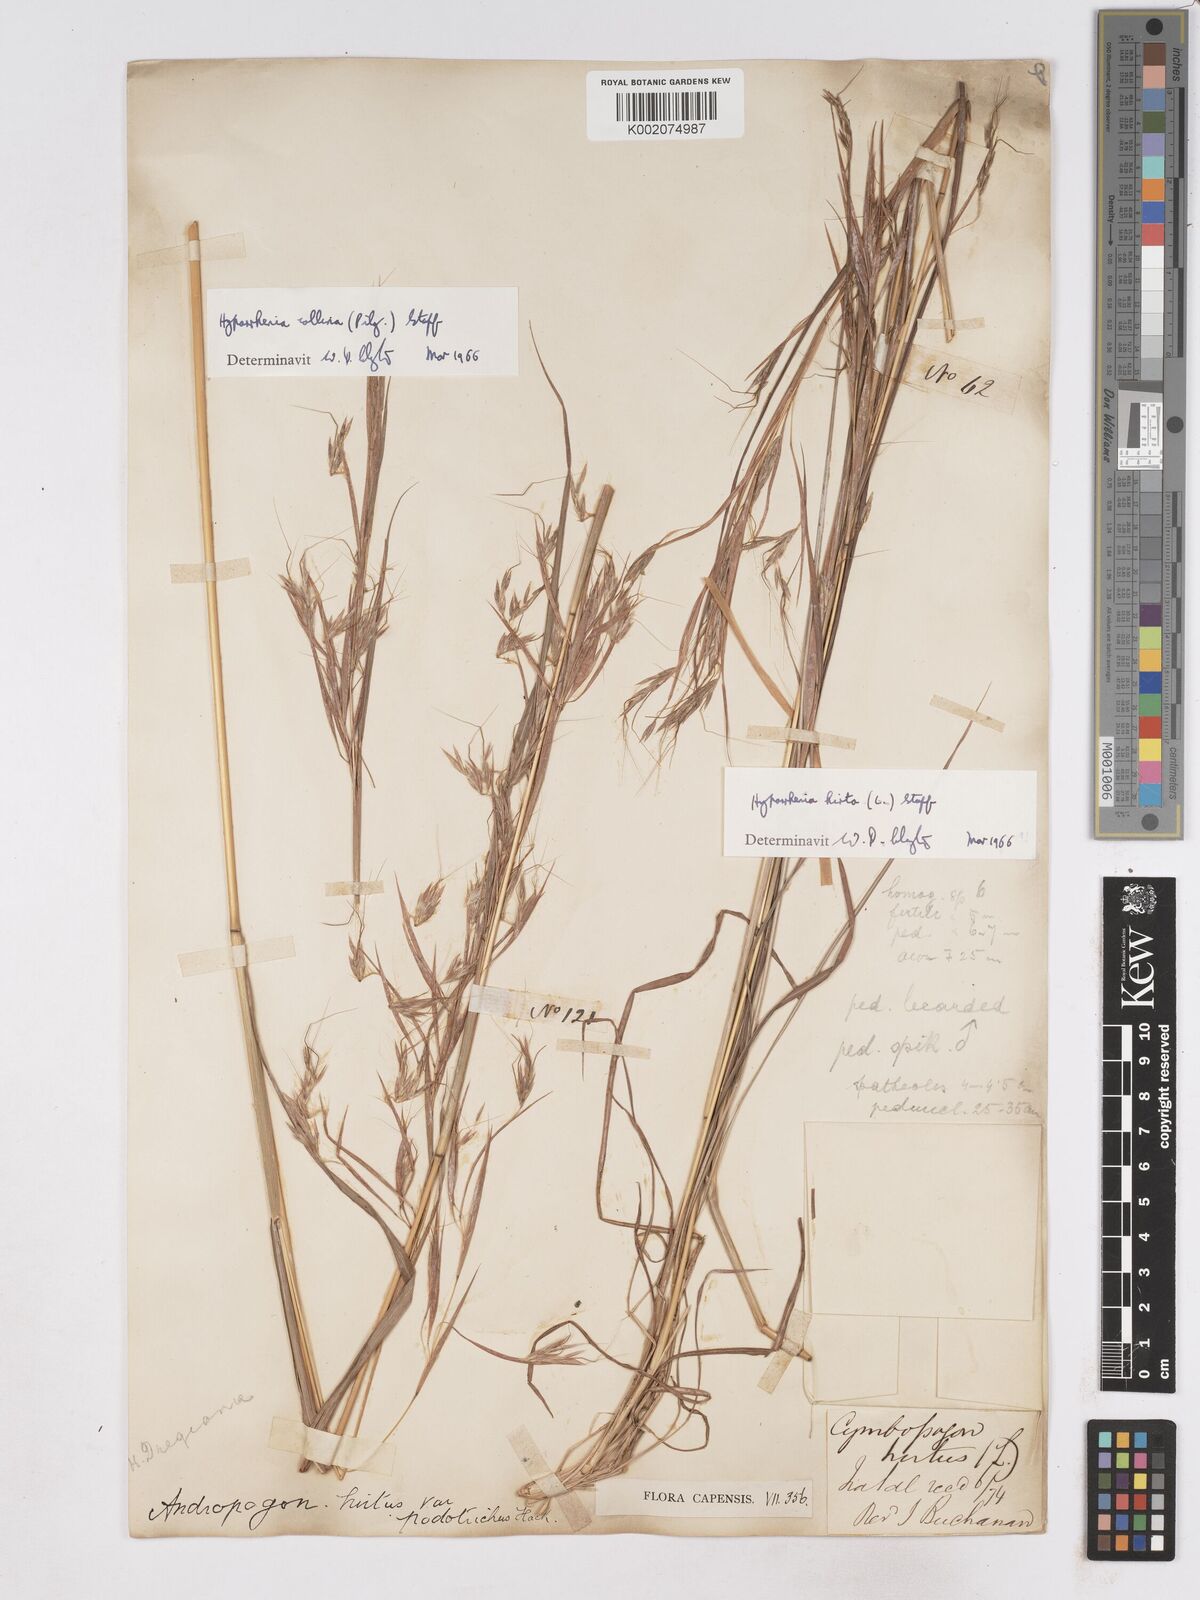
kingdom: Plantae
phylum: Tracheophyta
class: Liliopsida
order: Poales
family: Poaceae
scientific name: Poaceae
